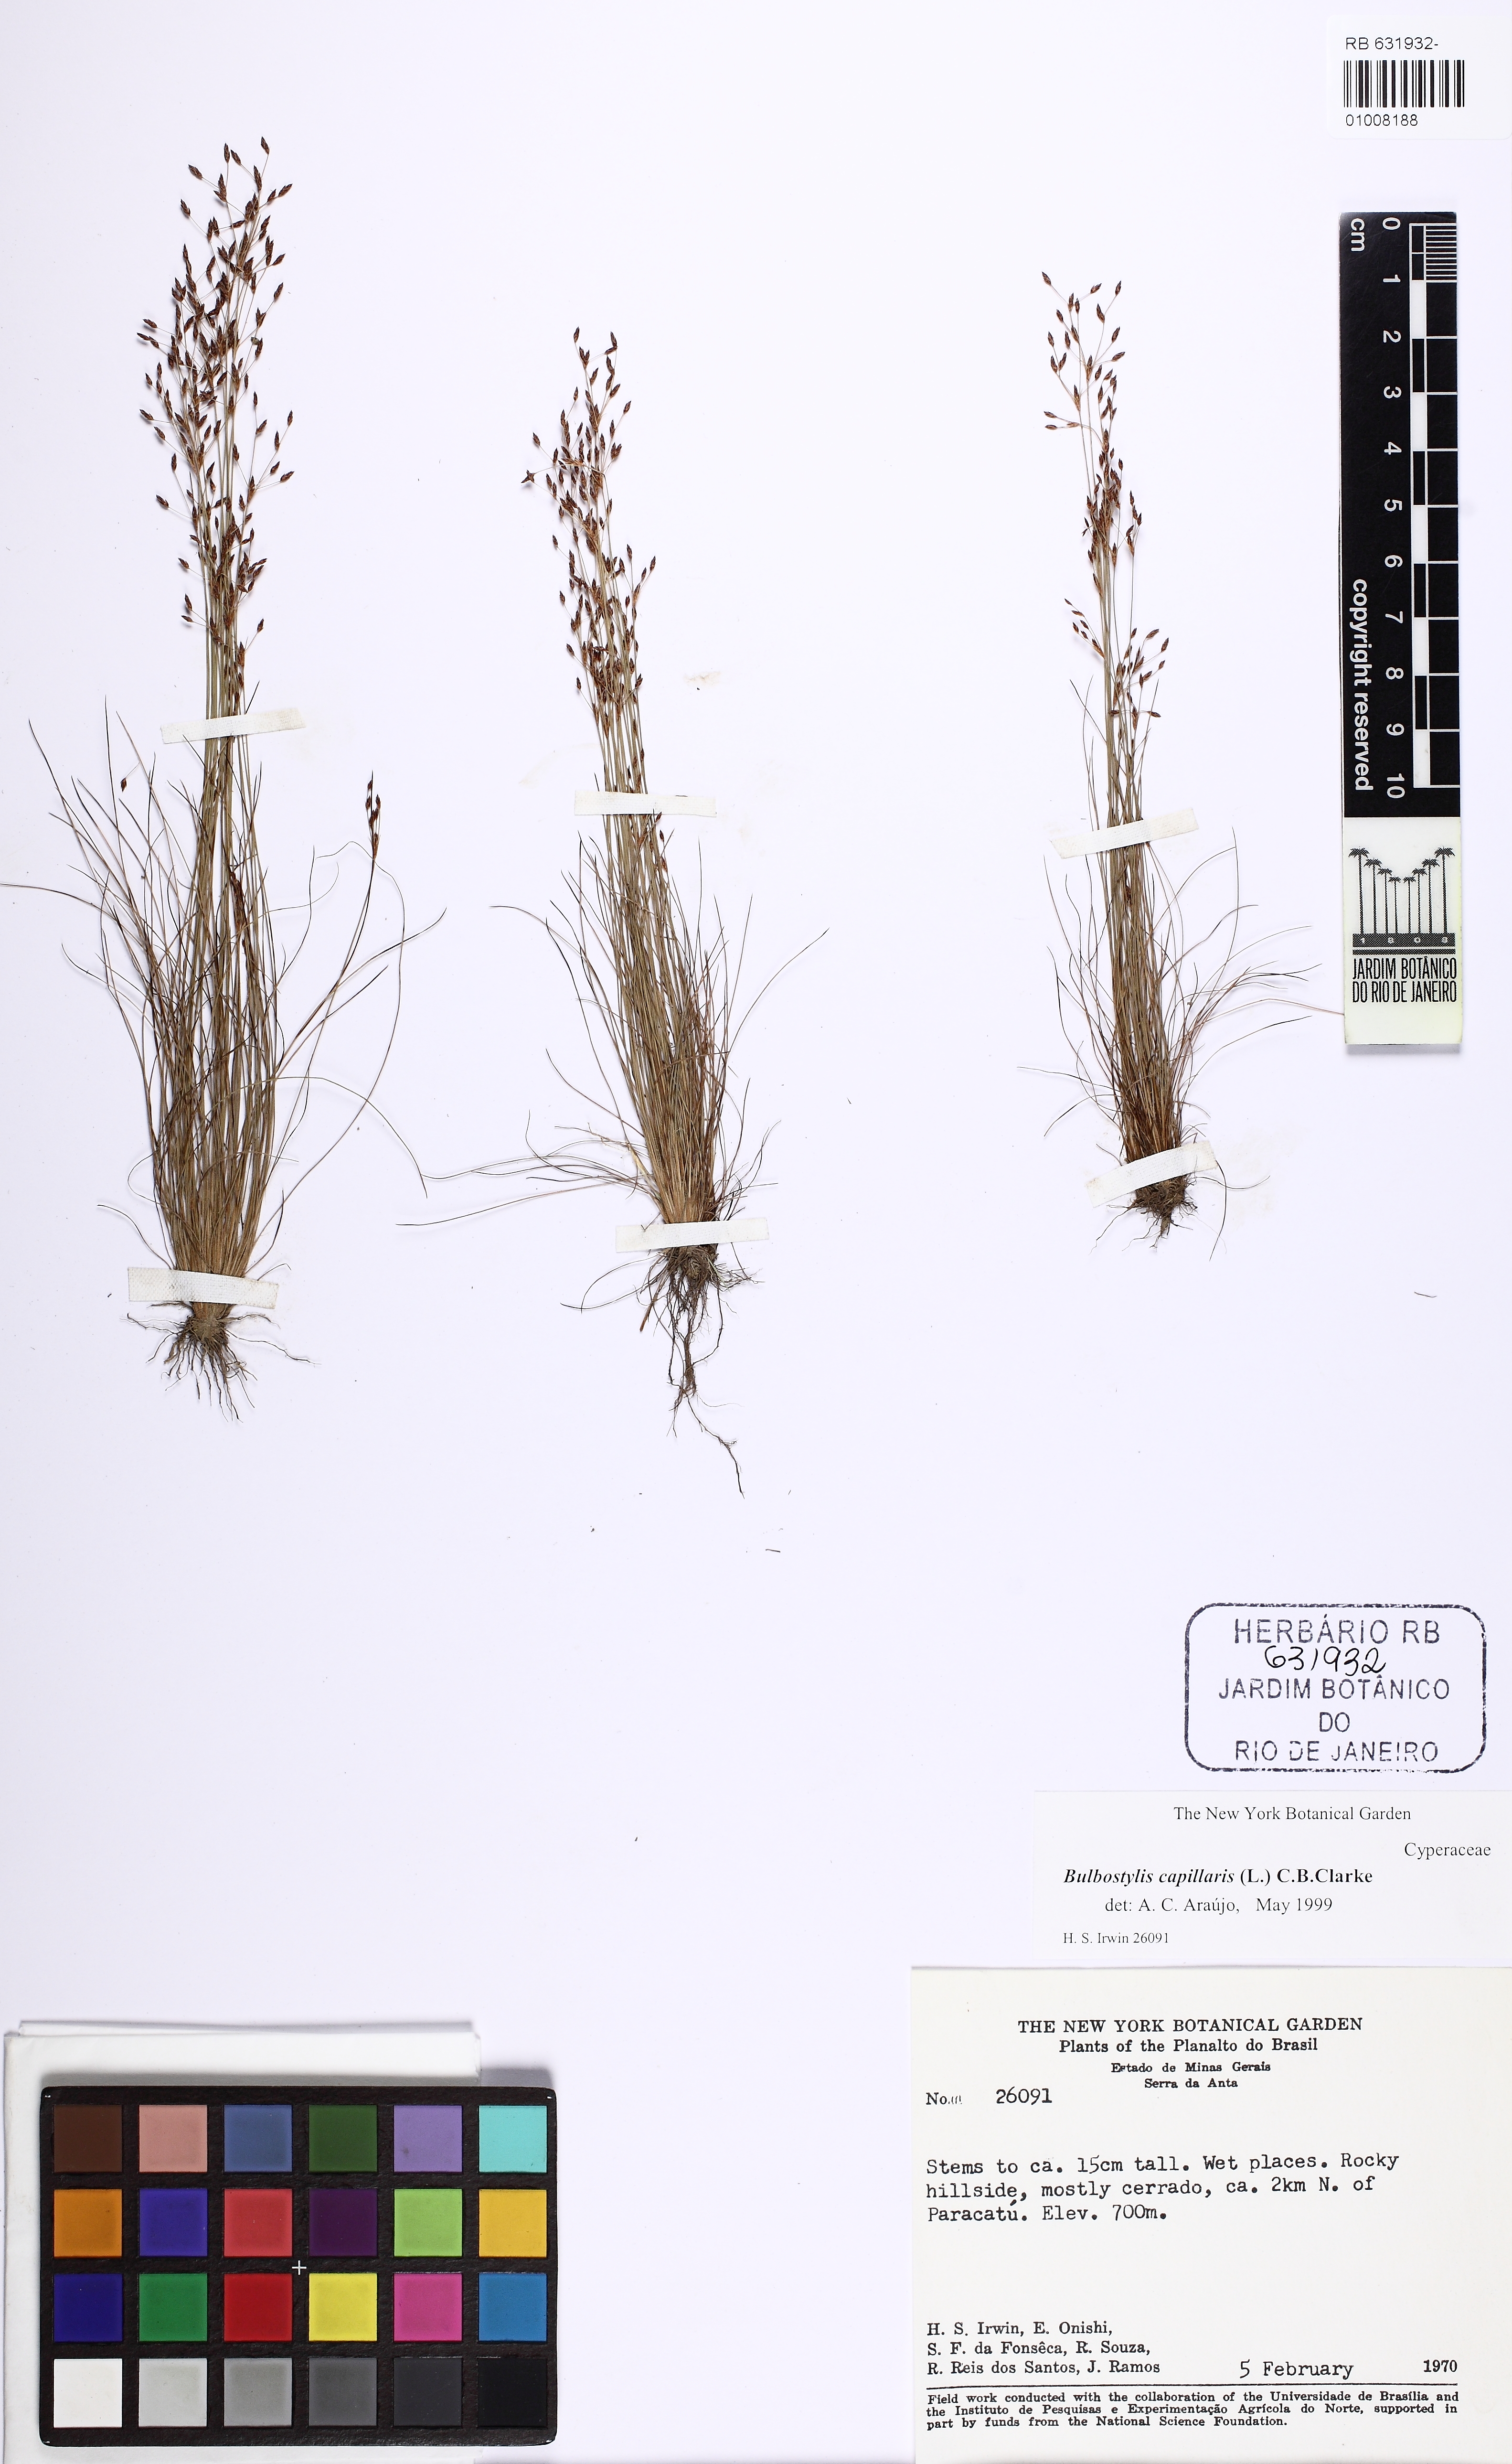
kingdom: Plantae
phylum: Tracheophyta
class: Liliopsida
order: Poales
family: Cyperaceae
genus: Bulbostylis
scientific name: Bulbostylis capillaris
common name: Densetuft hairsedge
